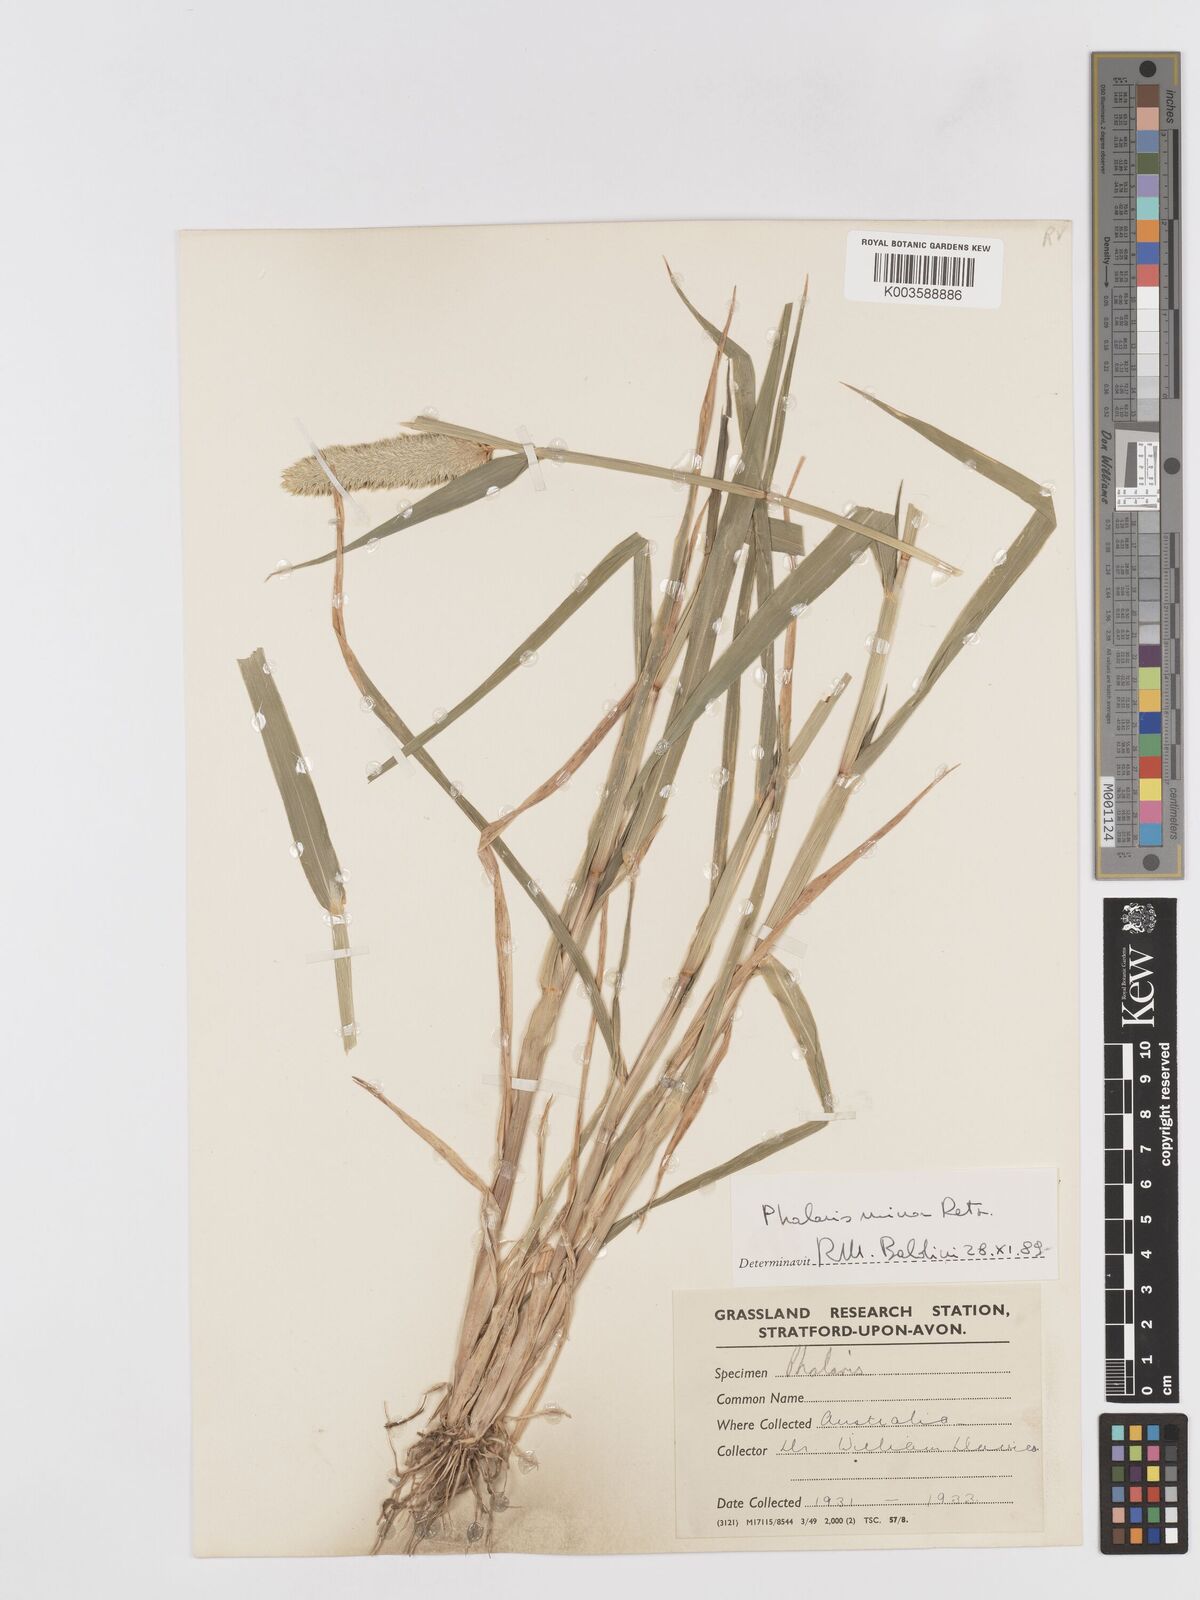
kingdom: Plantae
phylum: Tracheophyta
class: Liliopsida
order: Poales
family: Poaceae
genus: Phalaris
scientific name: Phalaris
